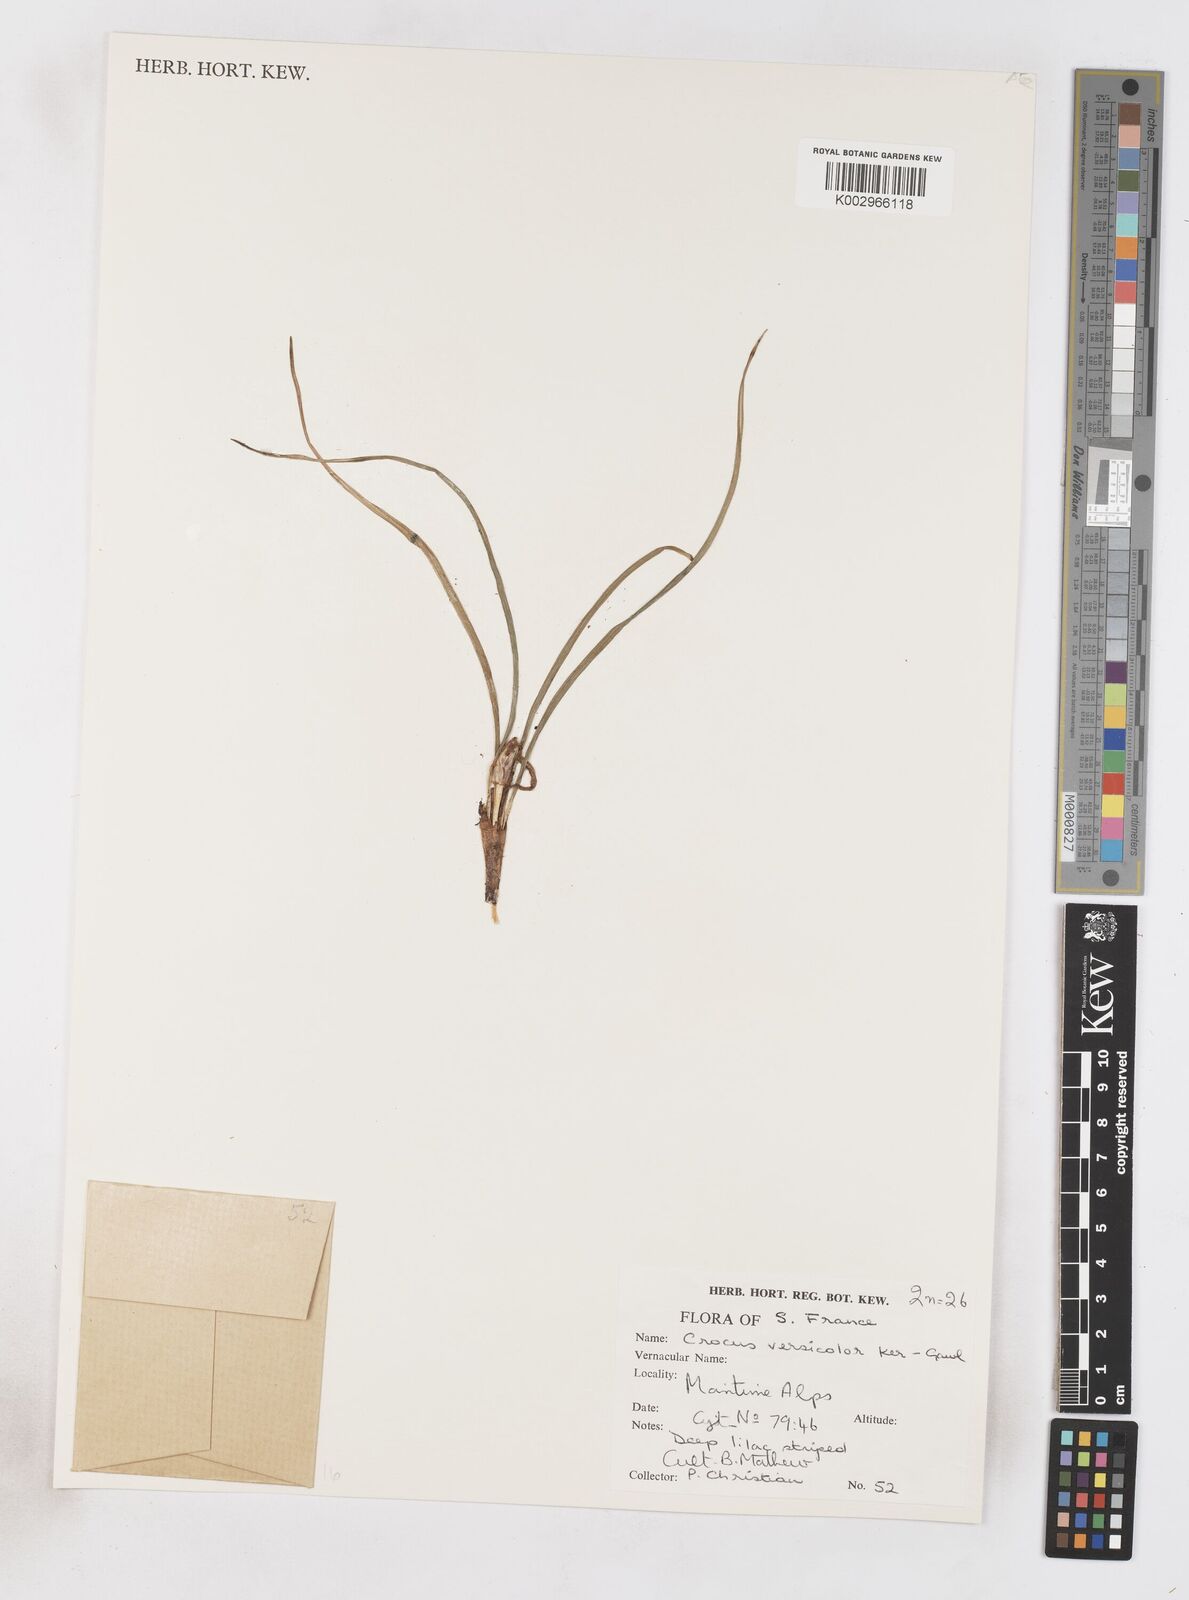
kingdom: Plantae
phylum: Tracheophyta
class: Liliopsida
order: Asparagales
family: Iridaceae
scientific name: Iridaceae
